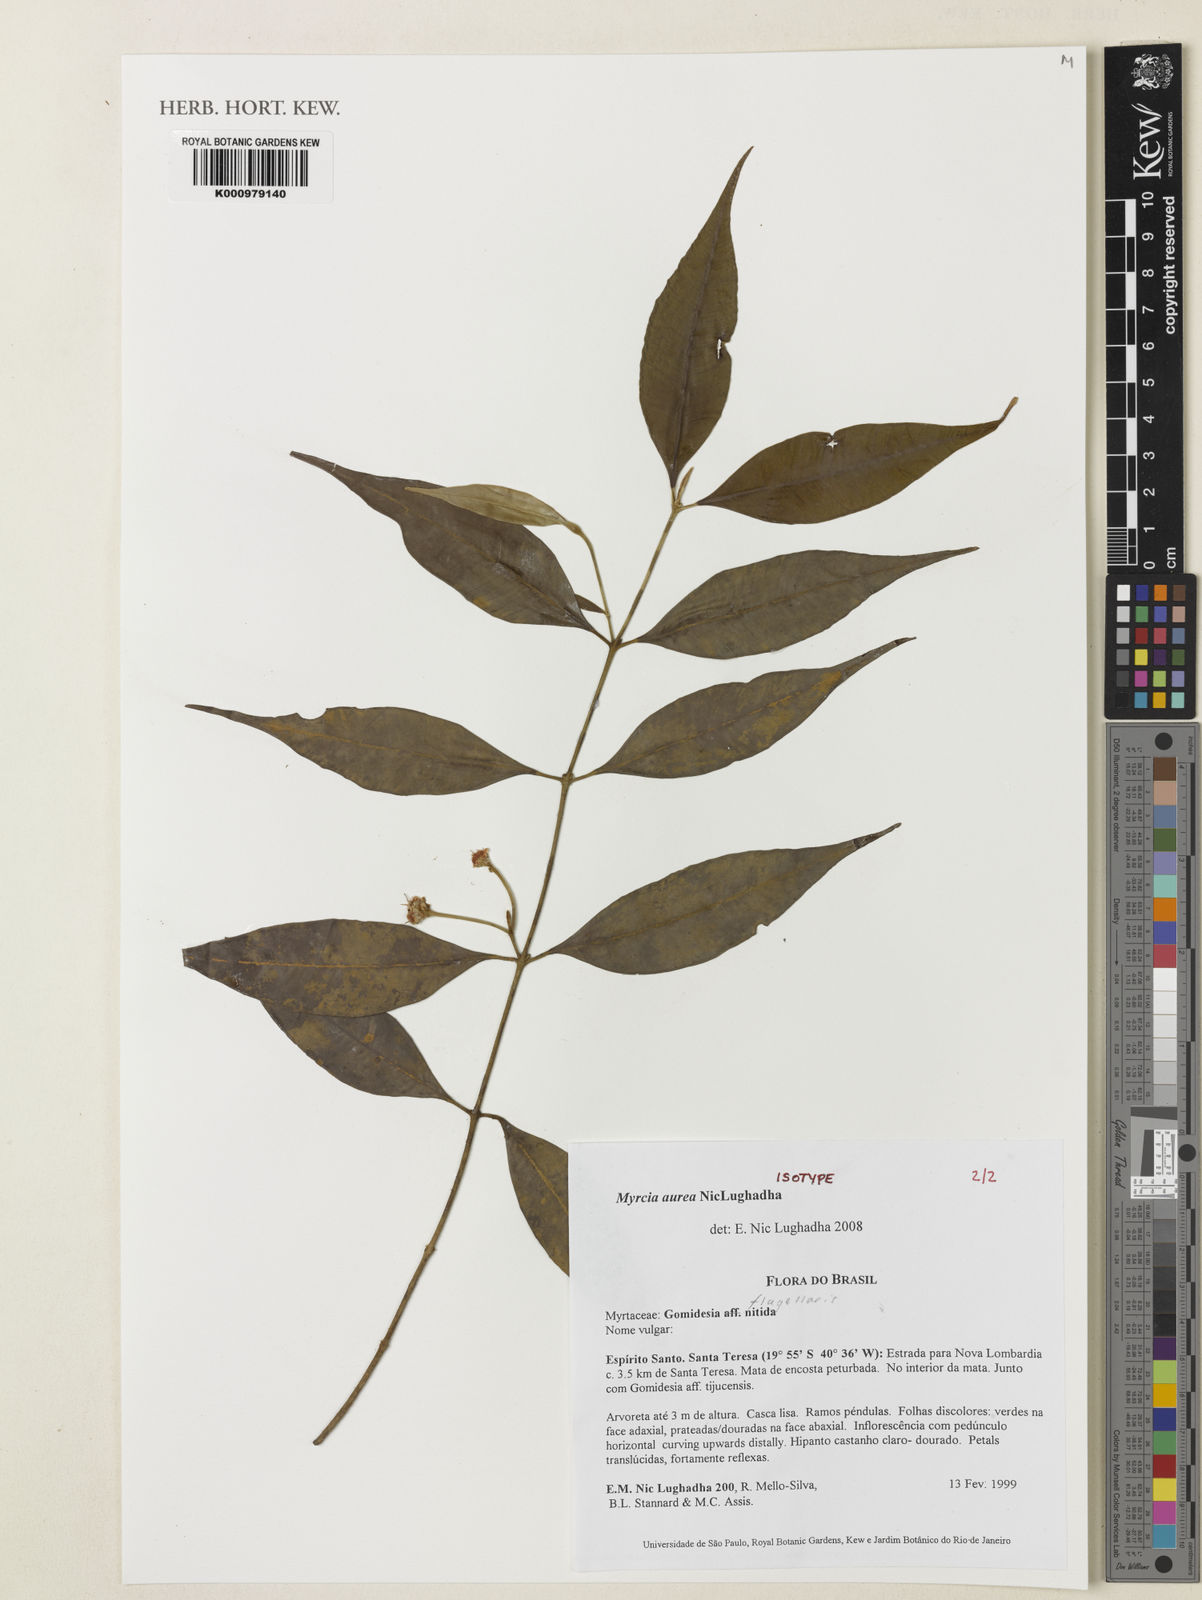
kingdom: Plantae
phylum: Tracheophyta
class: Magnoliopsida
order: Myrtales
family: Myrtaceae
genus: Myrcia
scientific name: Myrcia aurea
